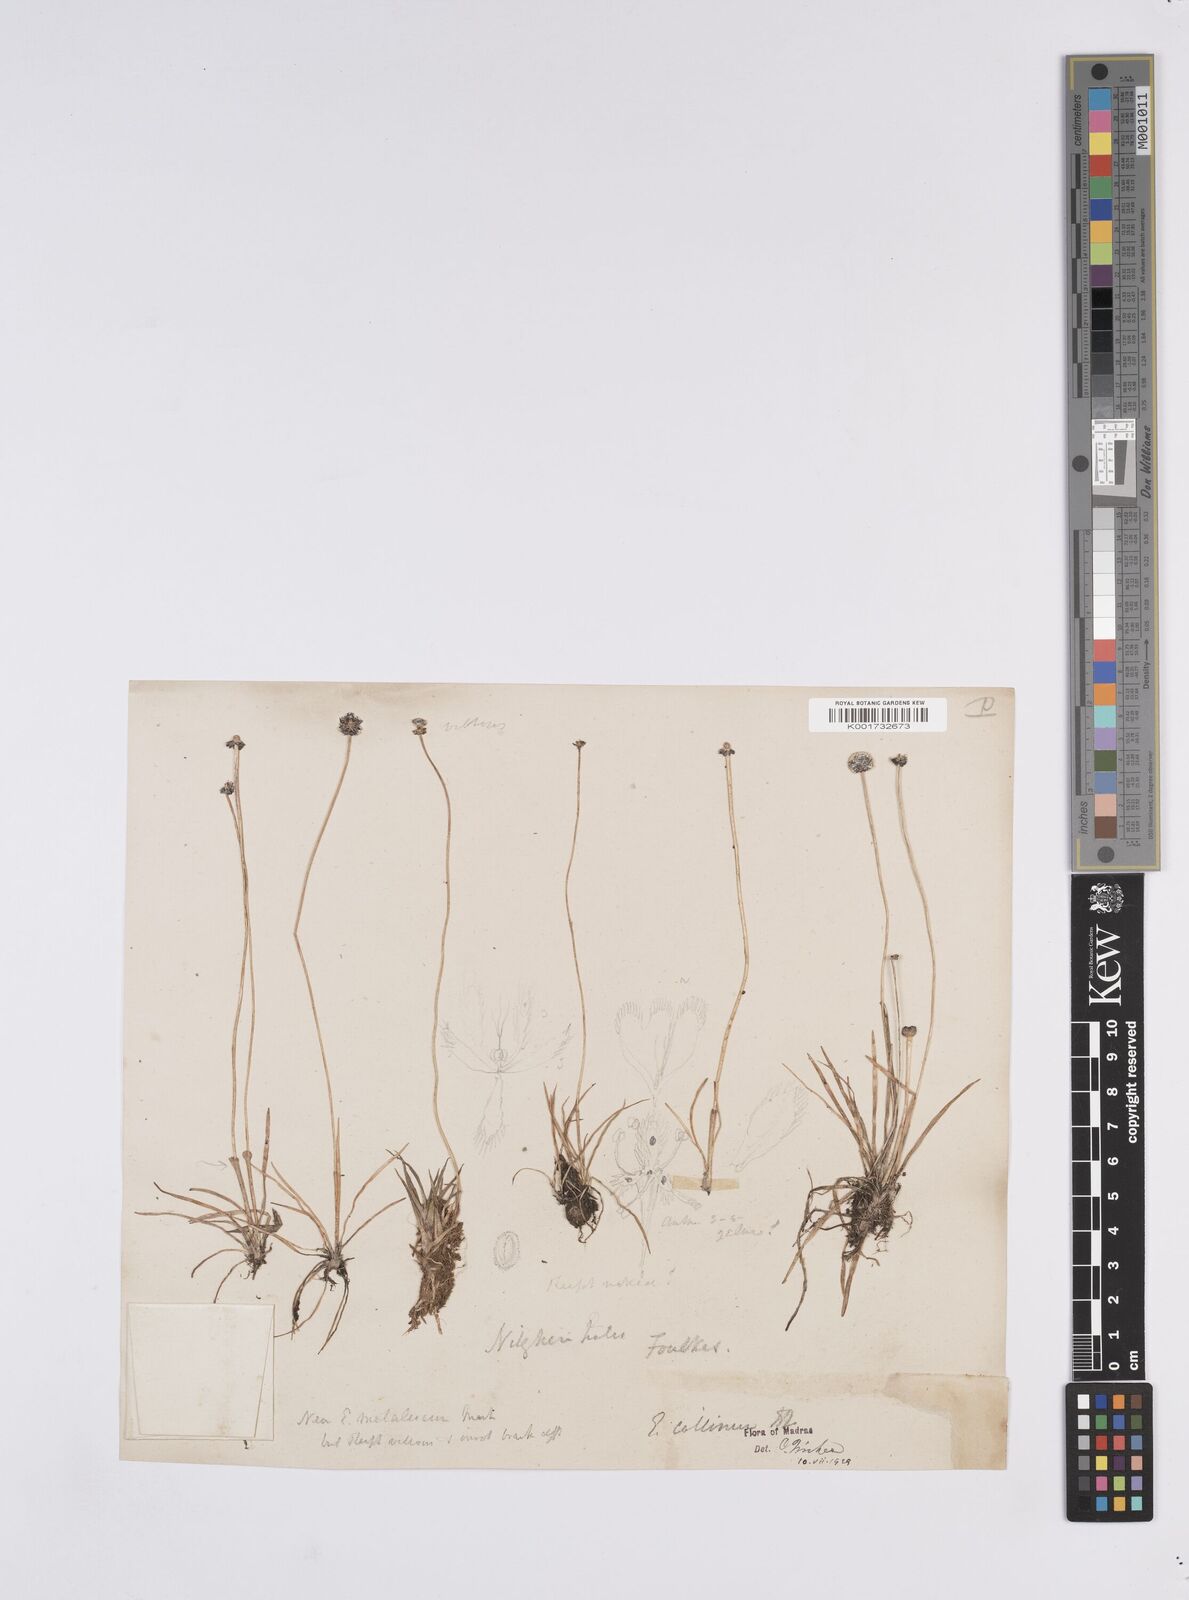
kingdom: Plantae
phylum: Tracheophyta
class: Liliopsida
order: Poales
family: Eriocaulaceae
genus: Eriocaulon
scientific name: Eriocaulon odoratum
